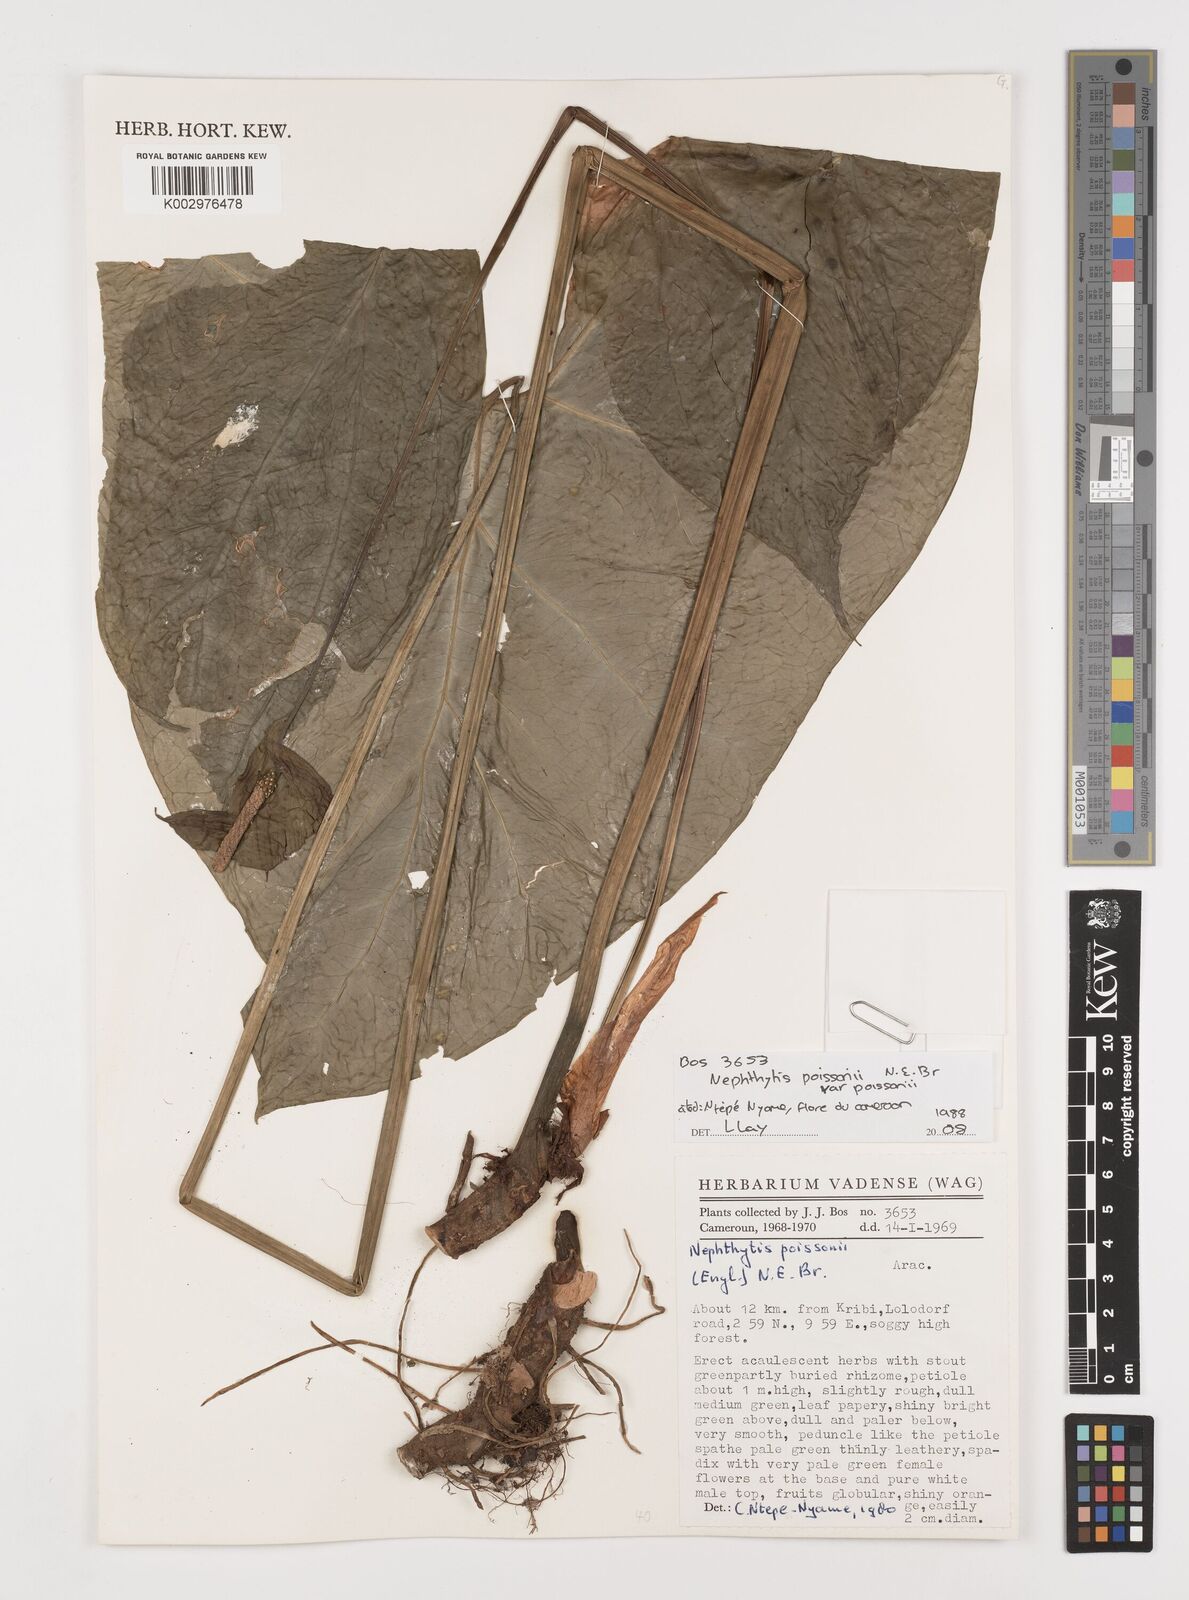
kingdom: Plantae
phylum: Tracheophyta
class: Liliopsida
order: Alismatales
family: Araceae
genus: Nephthytis
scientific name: Nephthytis poissonii
